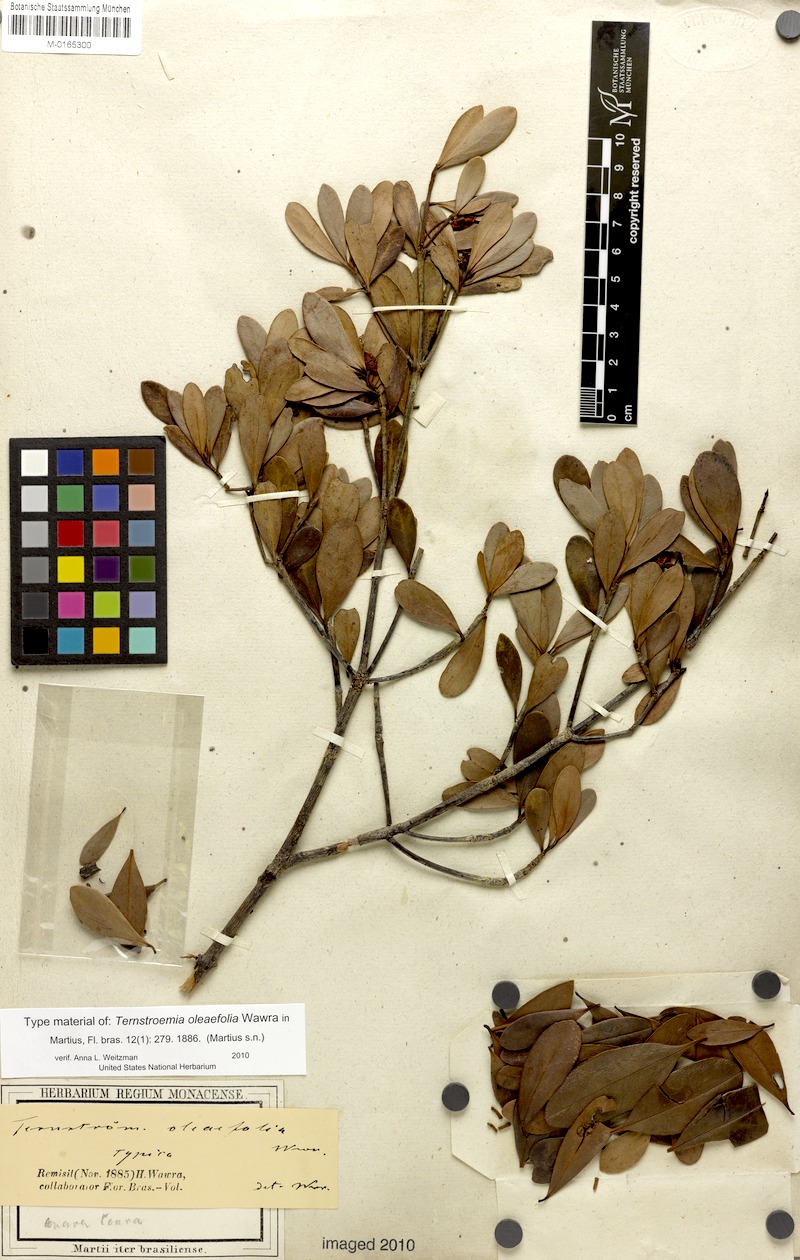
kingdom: Plantae
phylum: Tracheophyta
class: Magnoliopsida
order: Ericales
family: Pentaphylacaceae
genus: Ternstroemia
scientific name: Ternstroemia oleifolia
